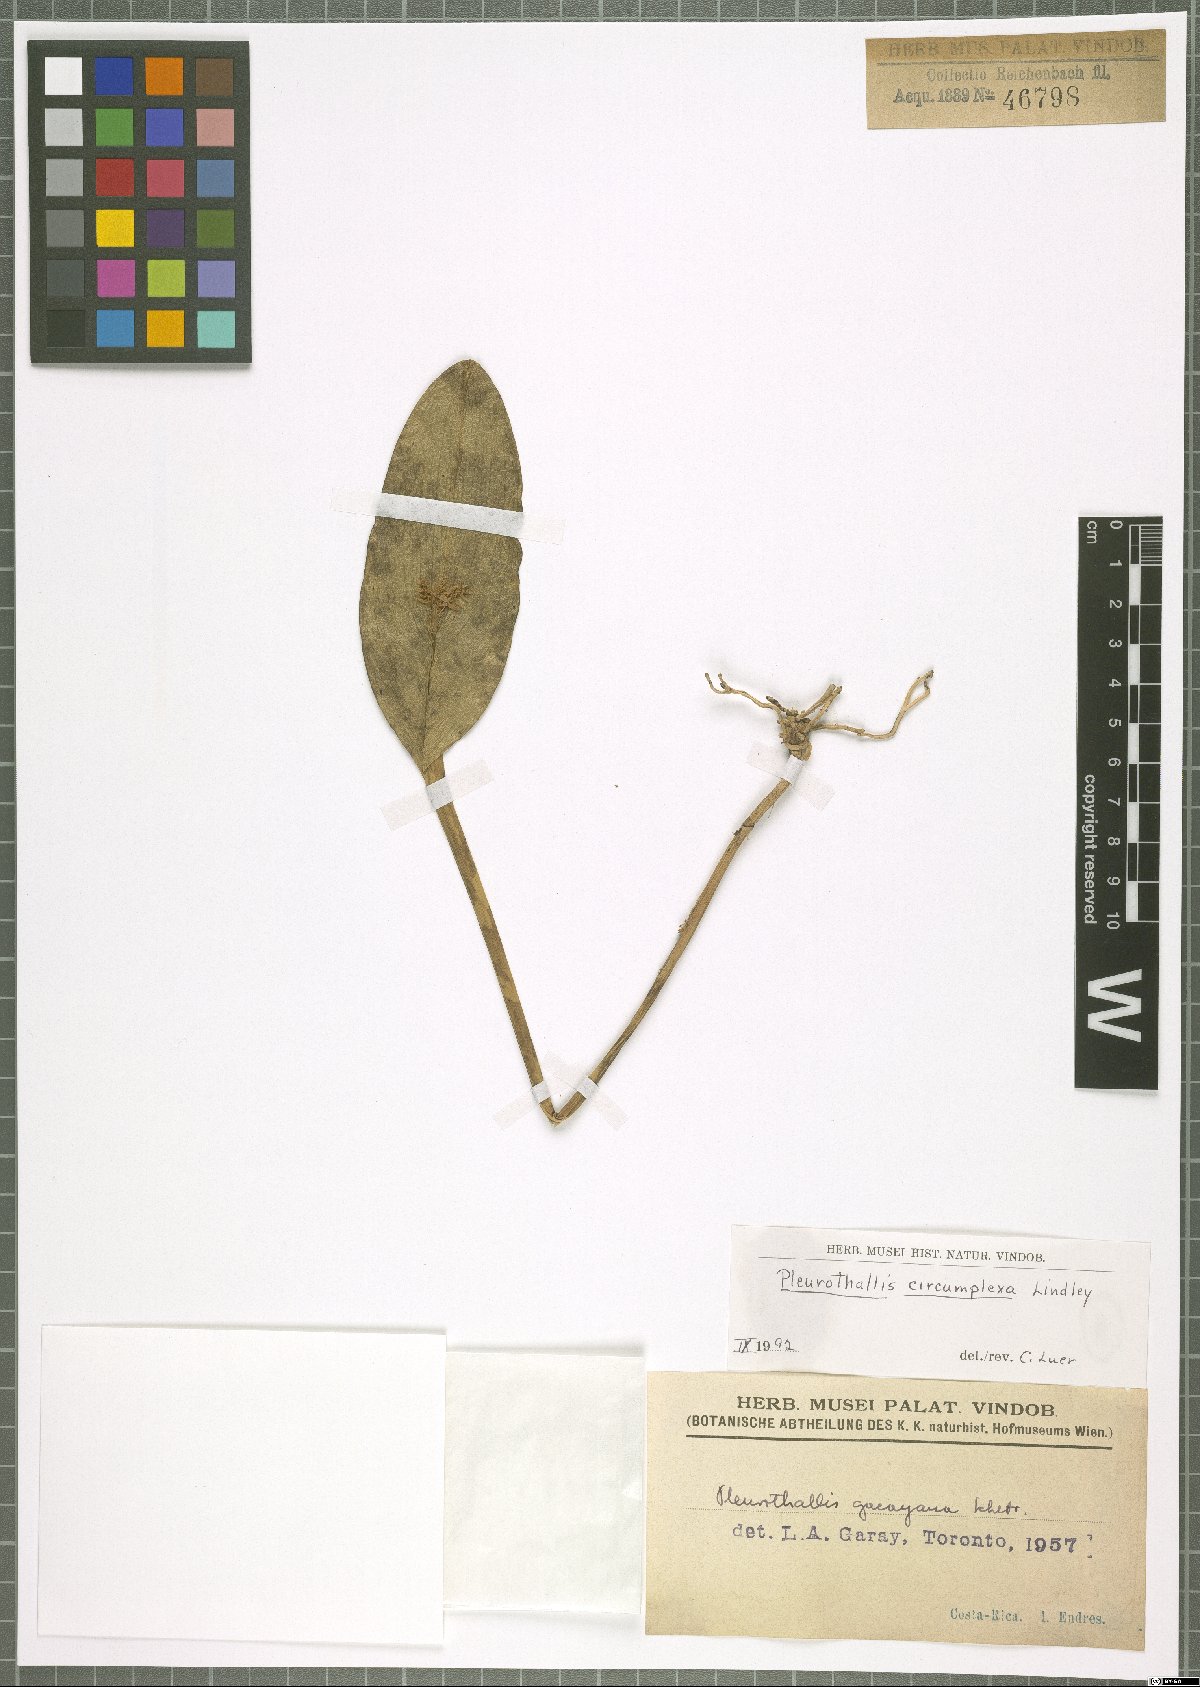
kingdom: Plantae
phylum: Tracheophyta
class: Liliopsida
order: Asparagales
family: Orchidaceae
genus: Acianthera
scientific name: Acianthera circumplexa
